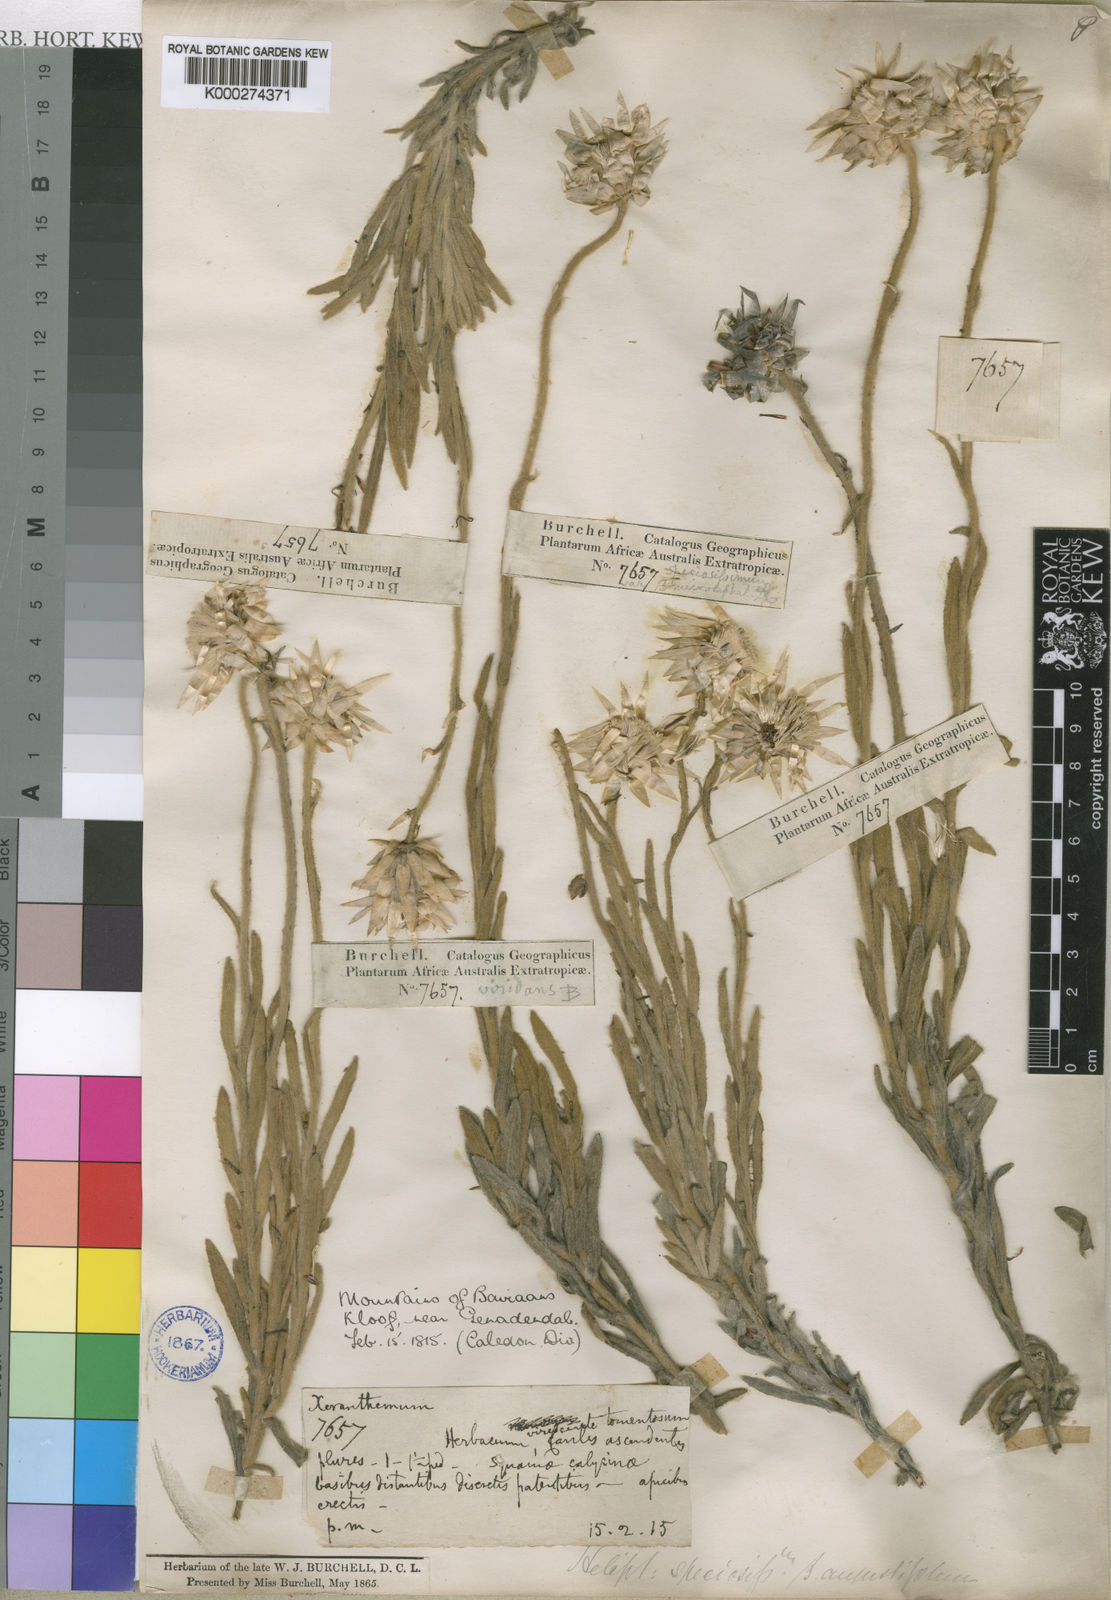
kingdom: Plantae
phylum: Tracheophyta
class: Magnoliopsida
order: Asterales
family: Asteraceae
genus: Syncarpha
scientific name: Syncarpha speciosissima
